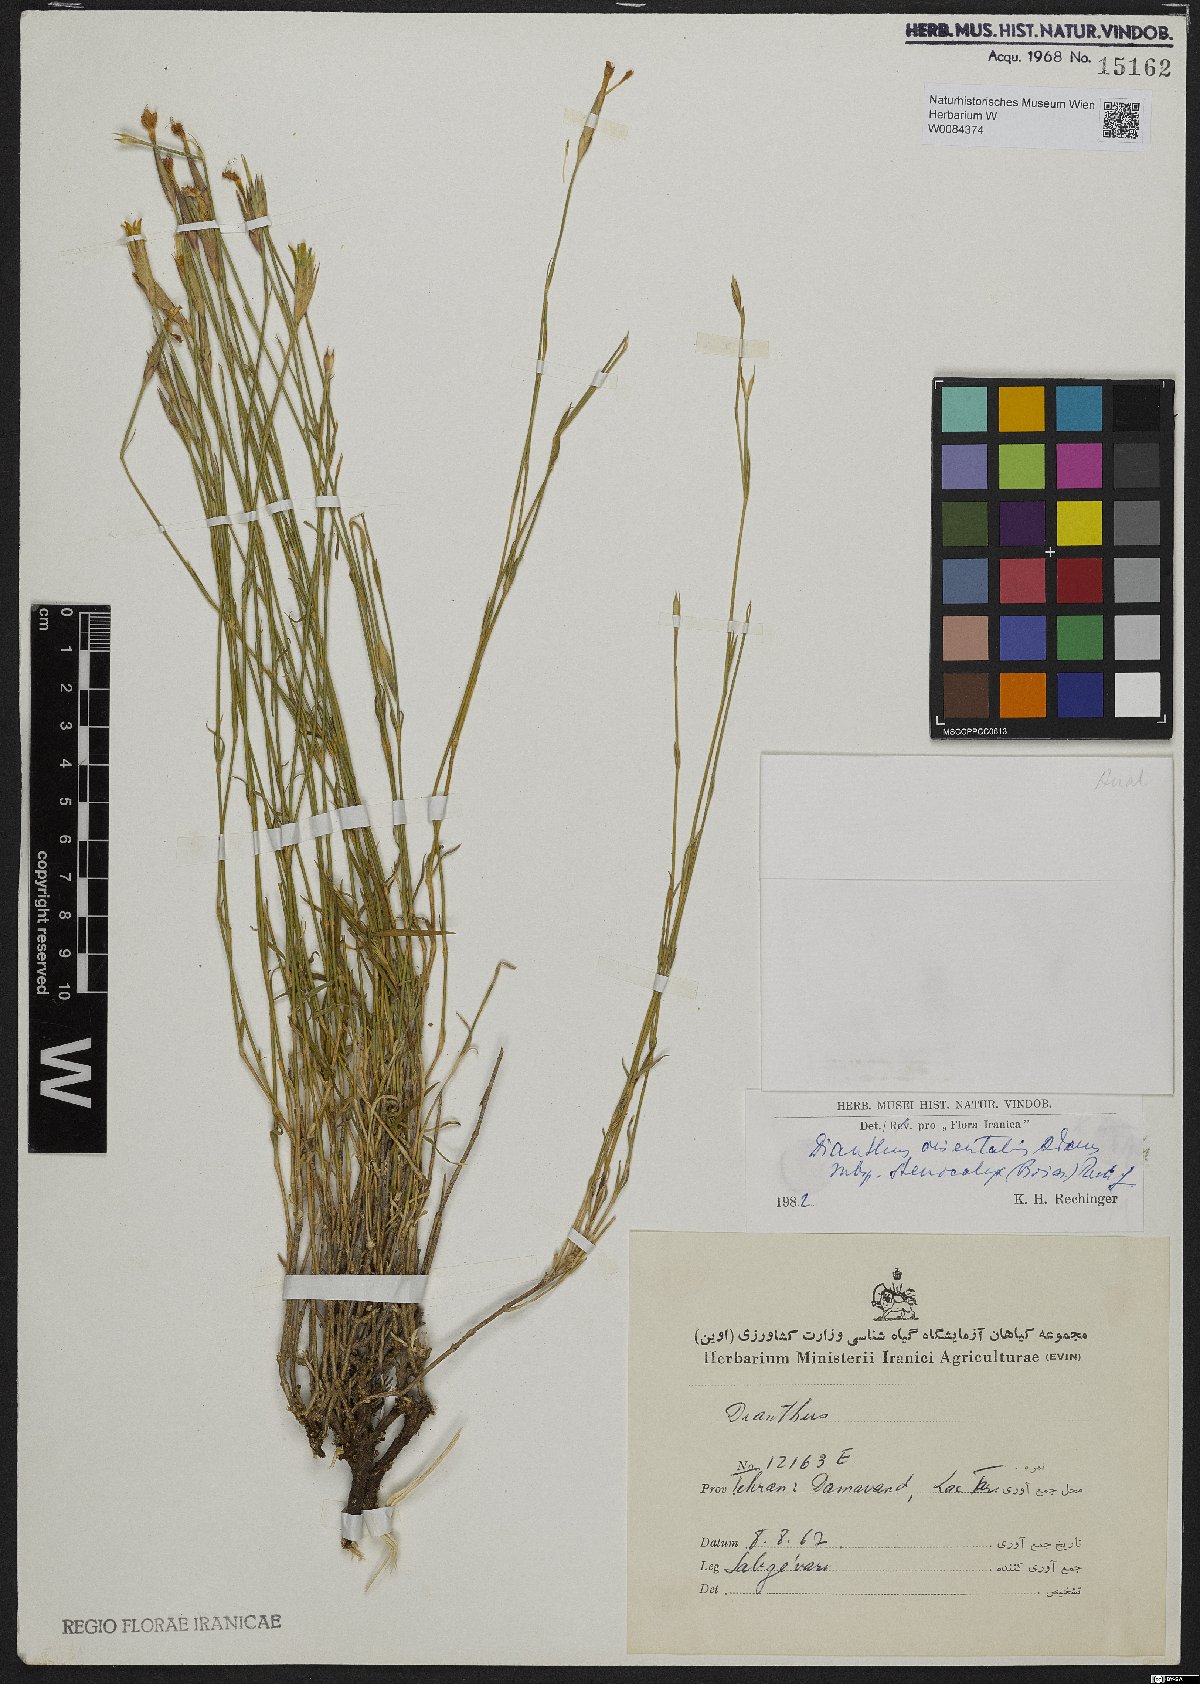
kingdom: Plantae
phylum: Tracheophyta
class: Magnoliopsida
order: Caryophyllales
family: Caryophyllaceae
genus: Dianthus
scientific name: Dianthus orientalis
